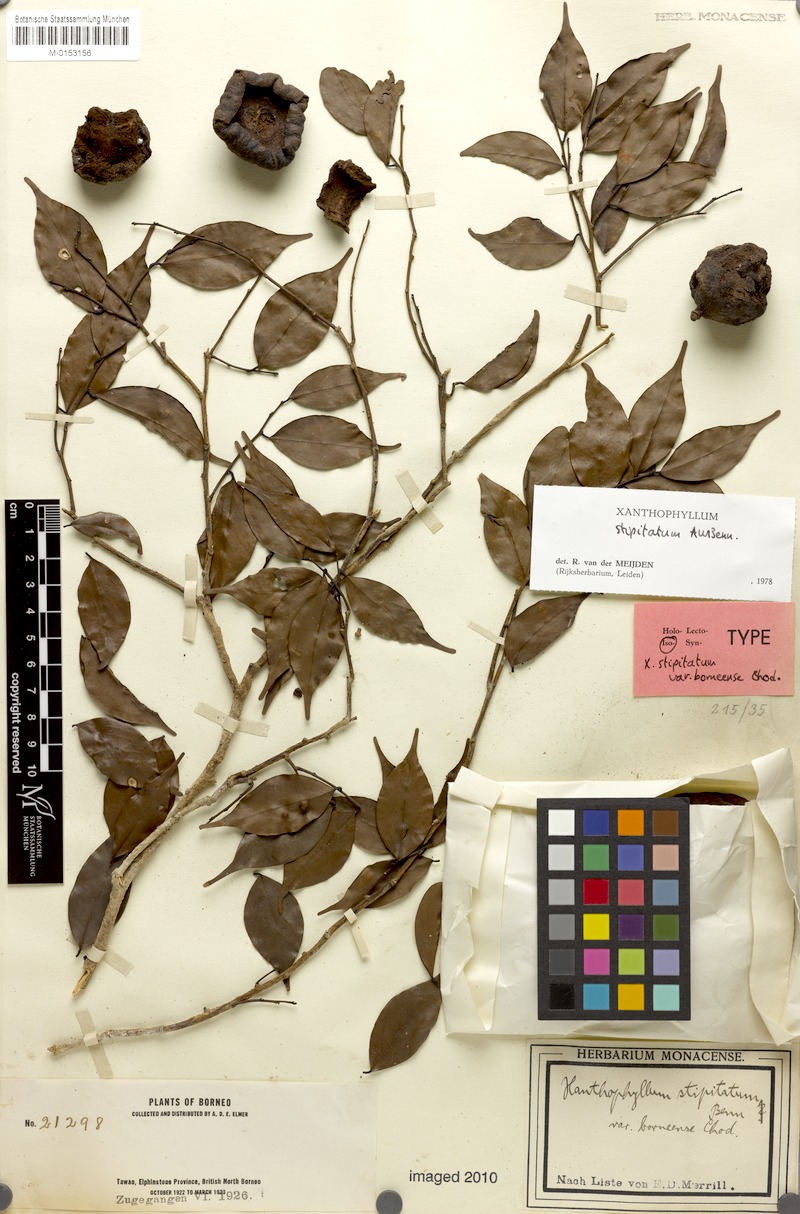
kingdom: Plantae
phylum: Tracheophyta
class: Magnoliopsida
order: Fabales
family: Polygalaceae
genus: Xanthophyllum
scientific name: Xanthophyllum stipitatum
